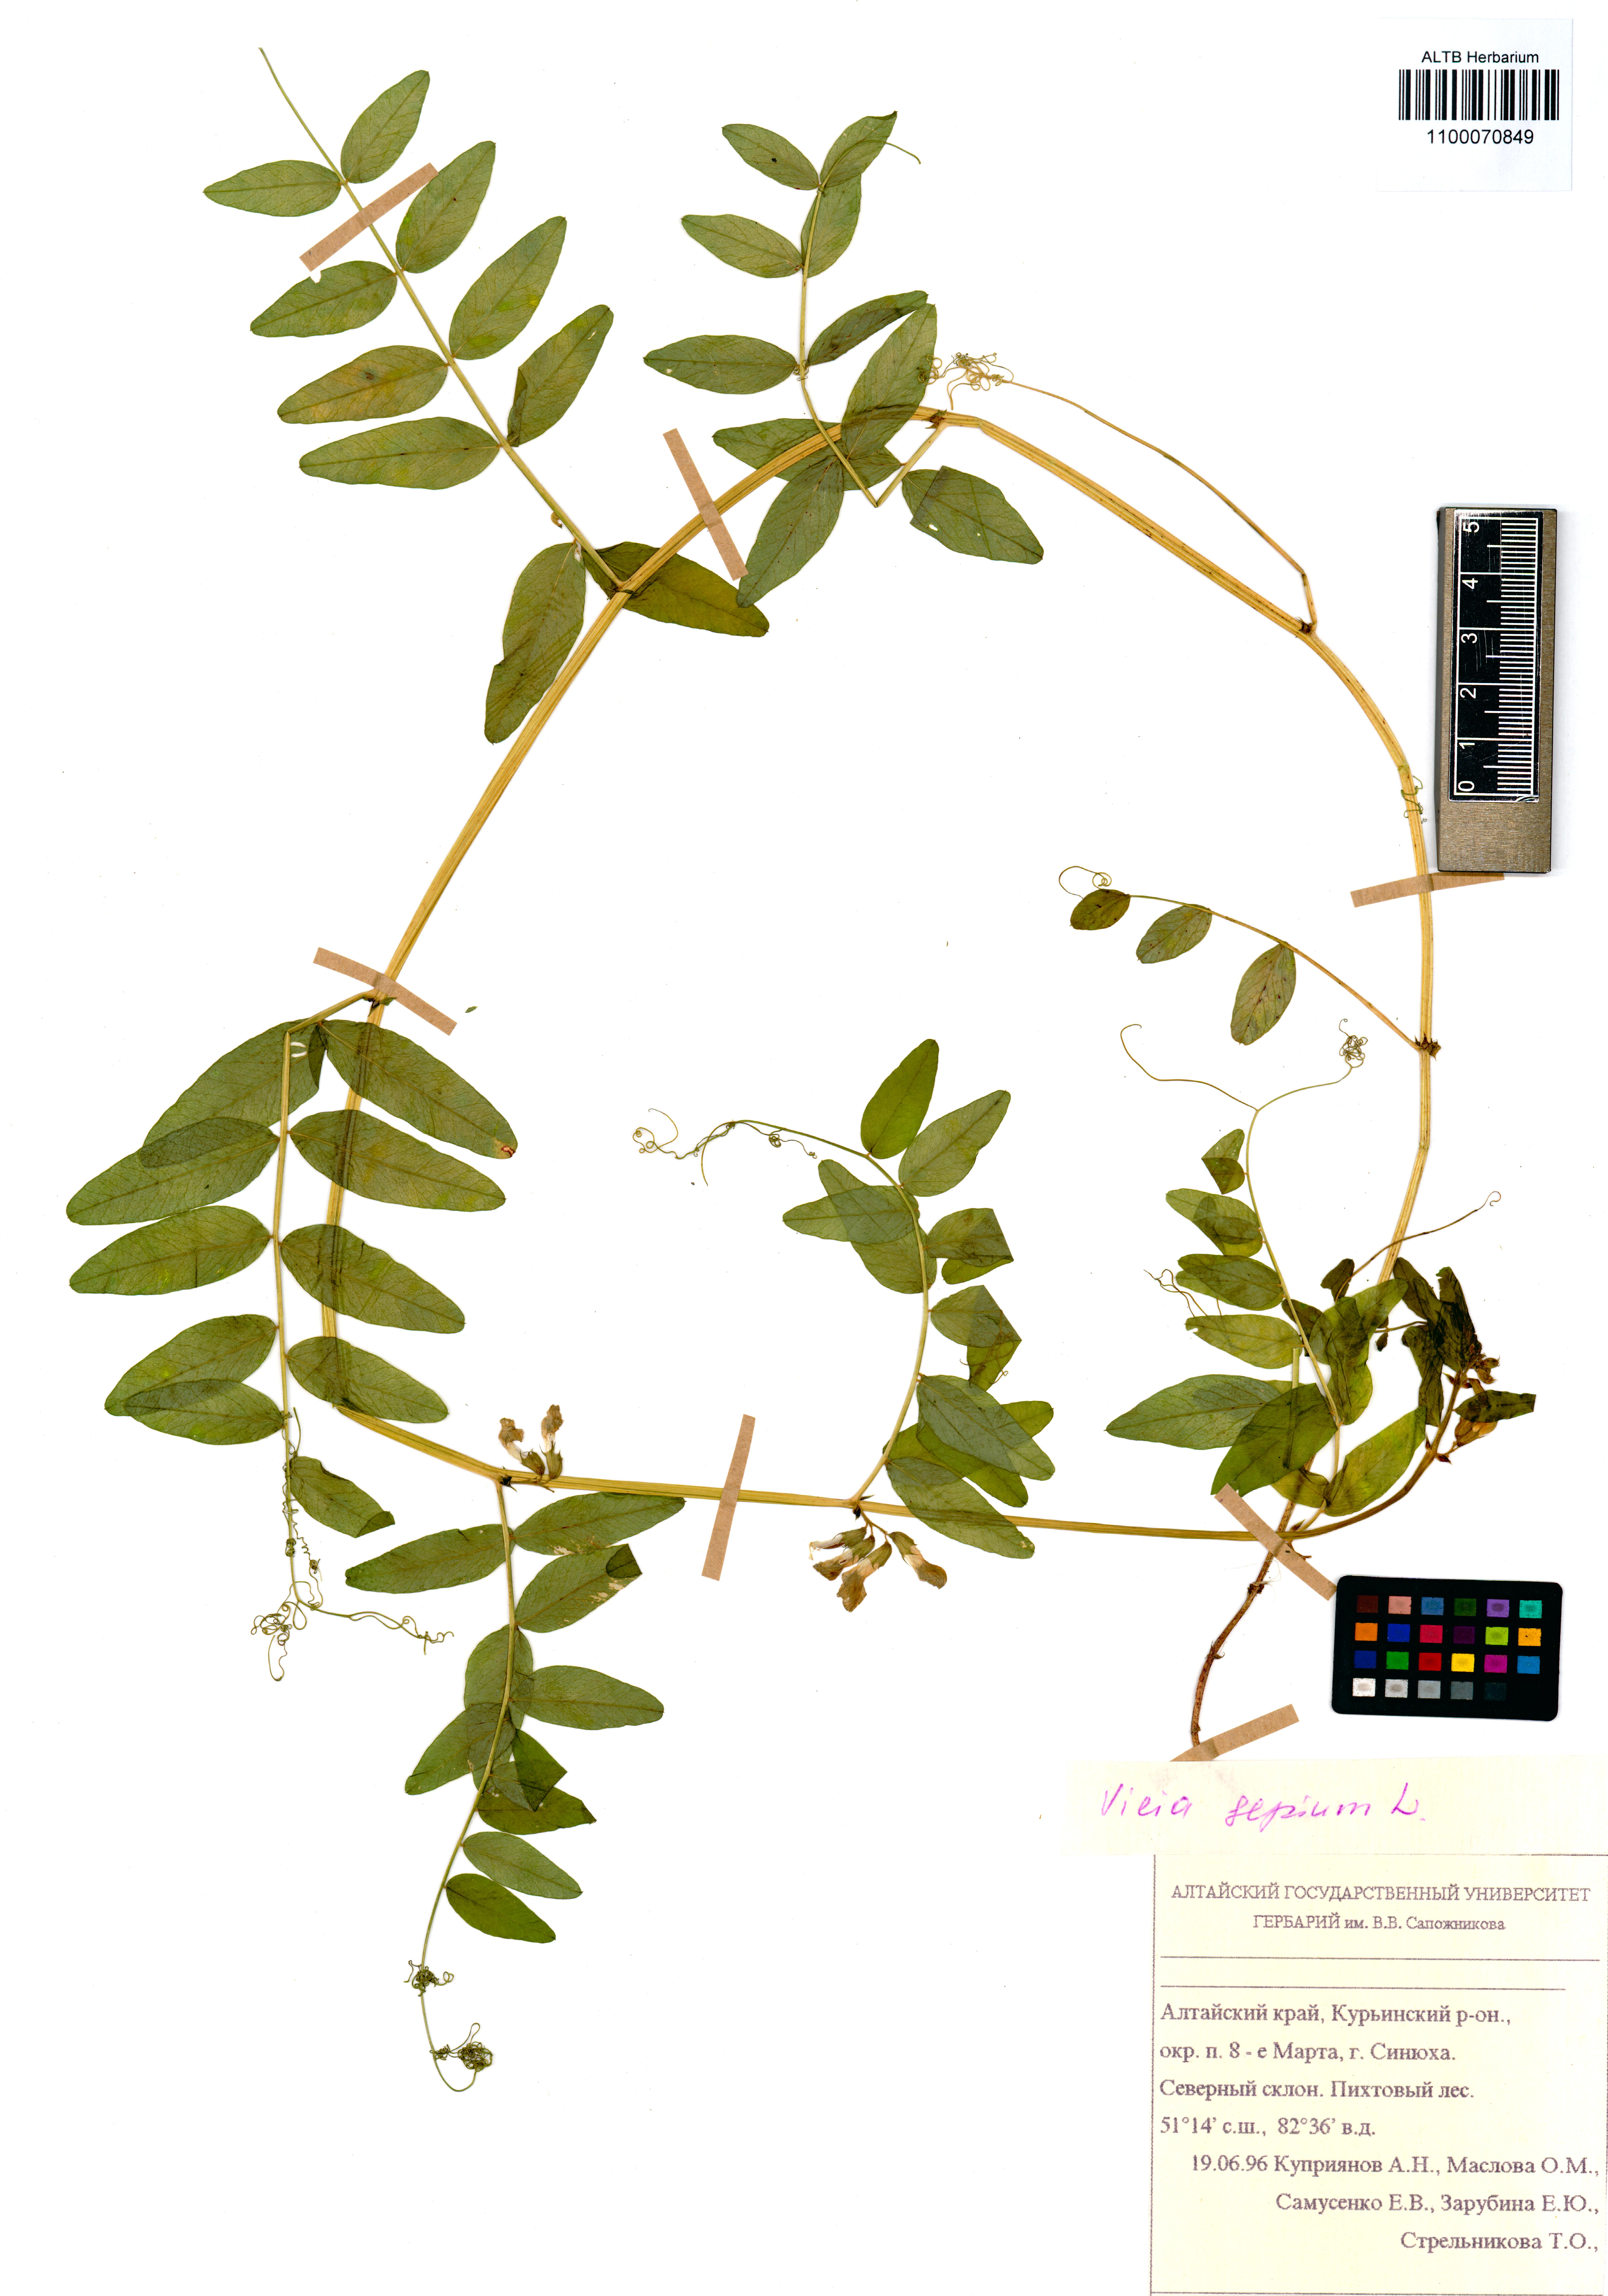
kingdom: Plantae
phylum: Tracheophyta
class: Magnoliopsida
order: Fabales
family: Fabaceae
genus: Vicia
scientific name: Vicia sepium
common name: Bush vetch
